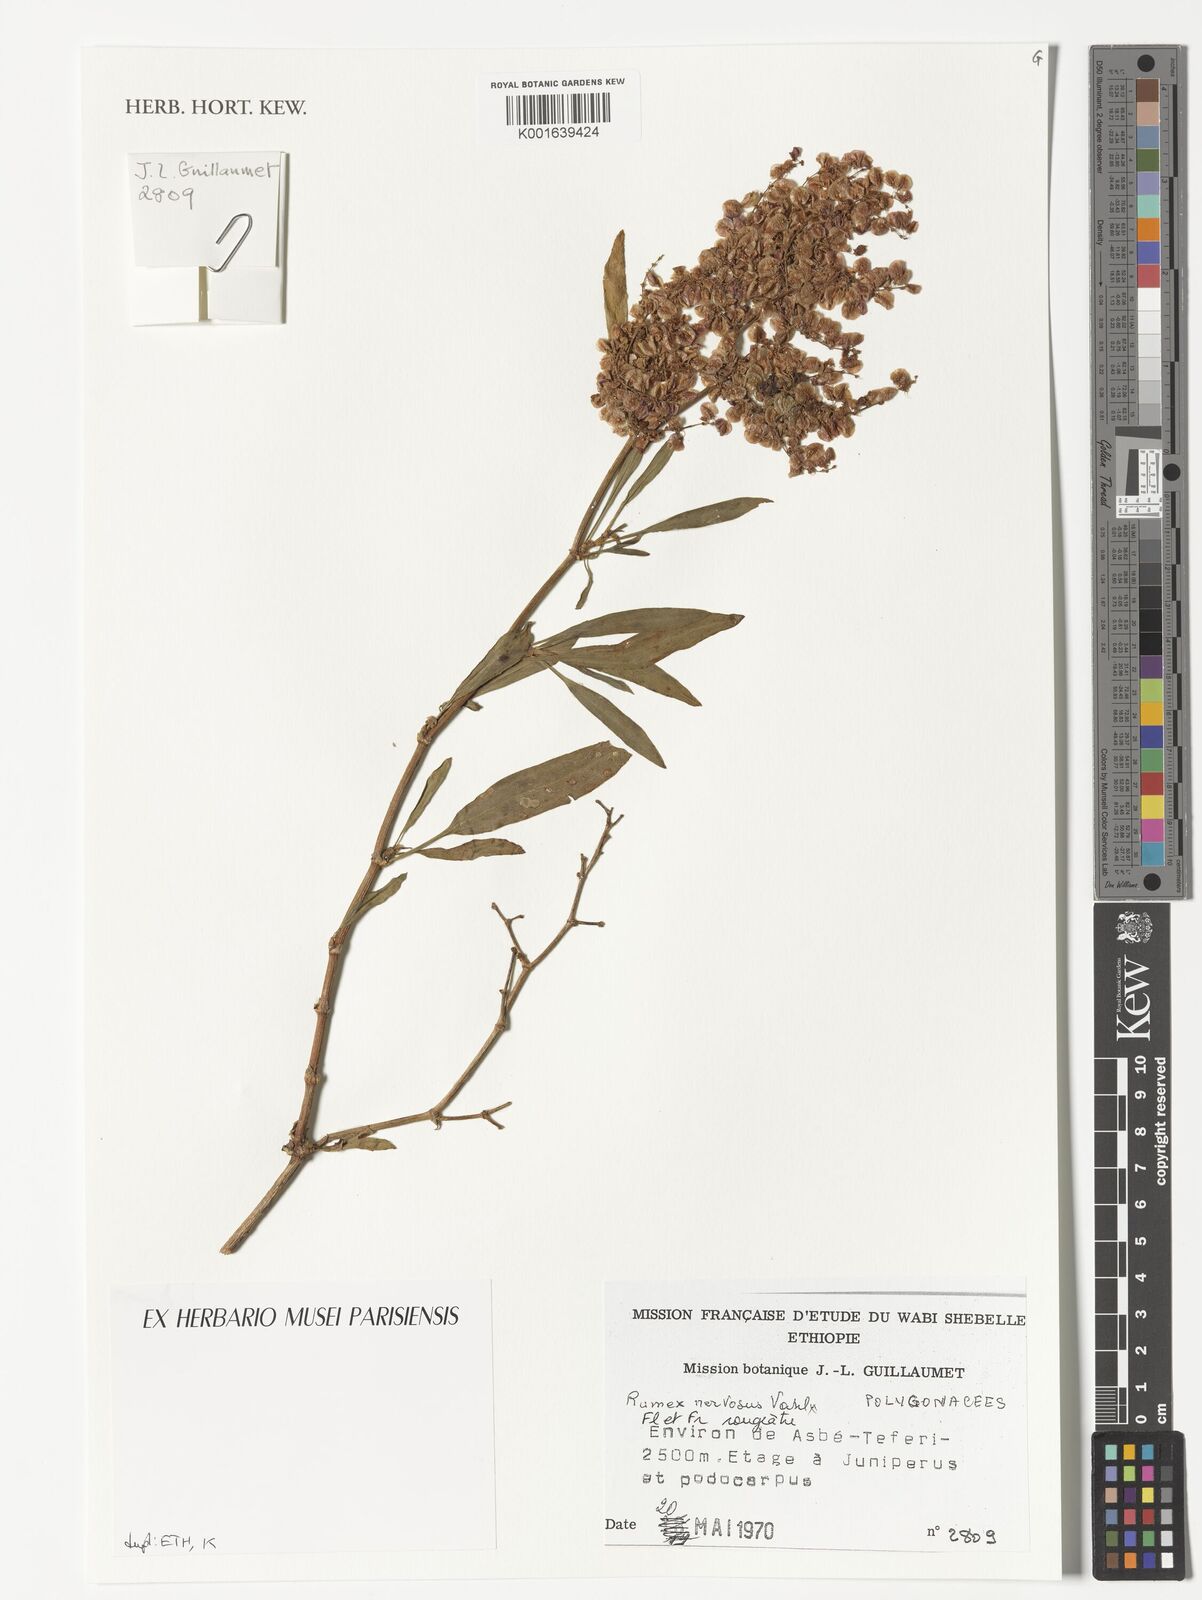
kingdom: Plantae
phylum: Tracheophyta
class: Magnoliopsida
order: Caryophyllales
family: Polygonaceae
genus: Rumex
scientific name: Rumex nervosus
